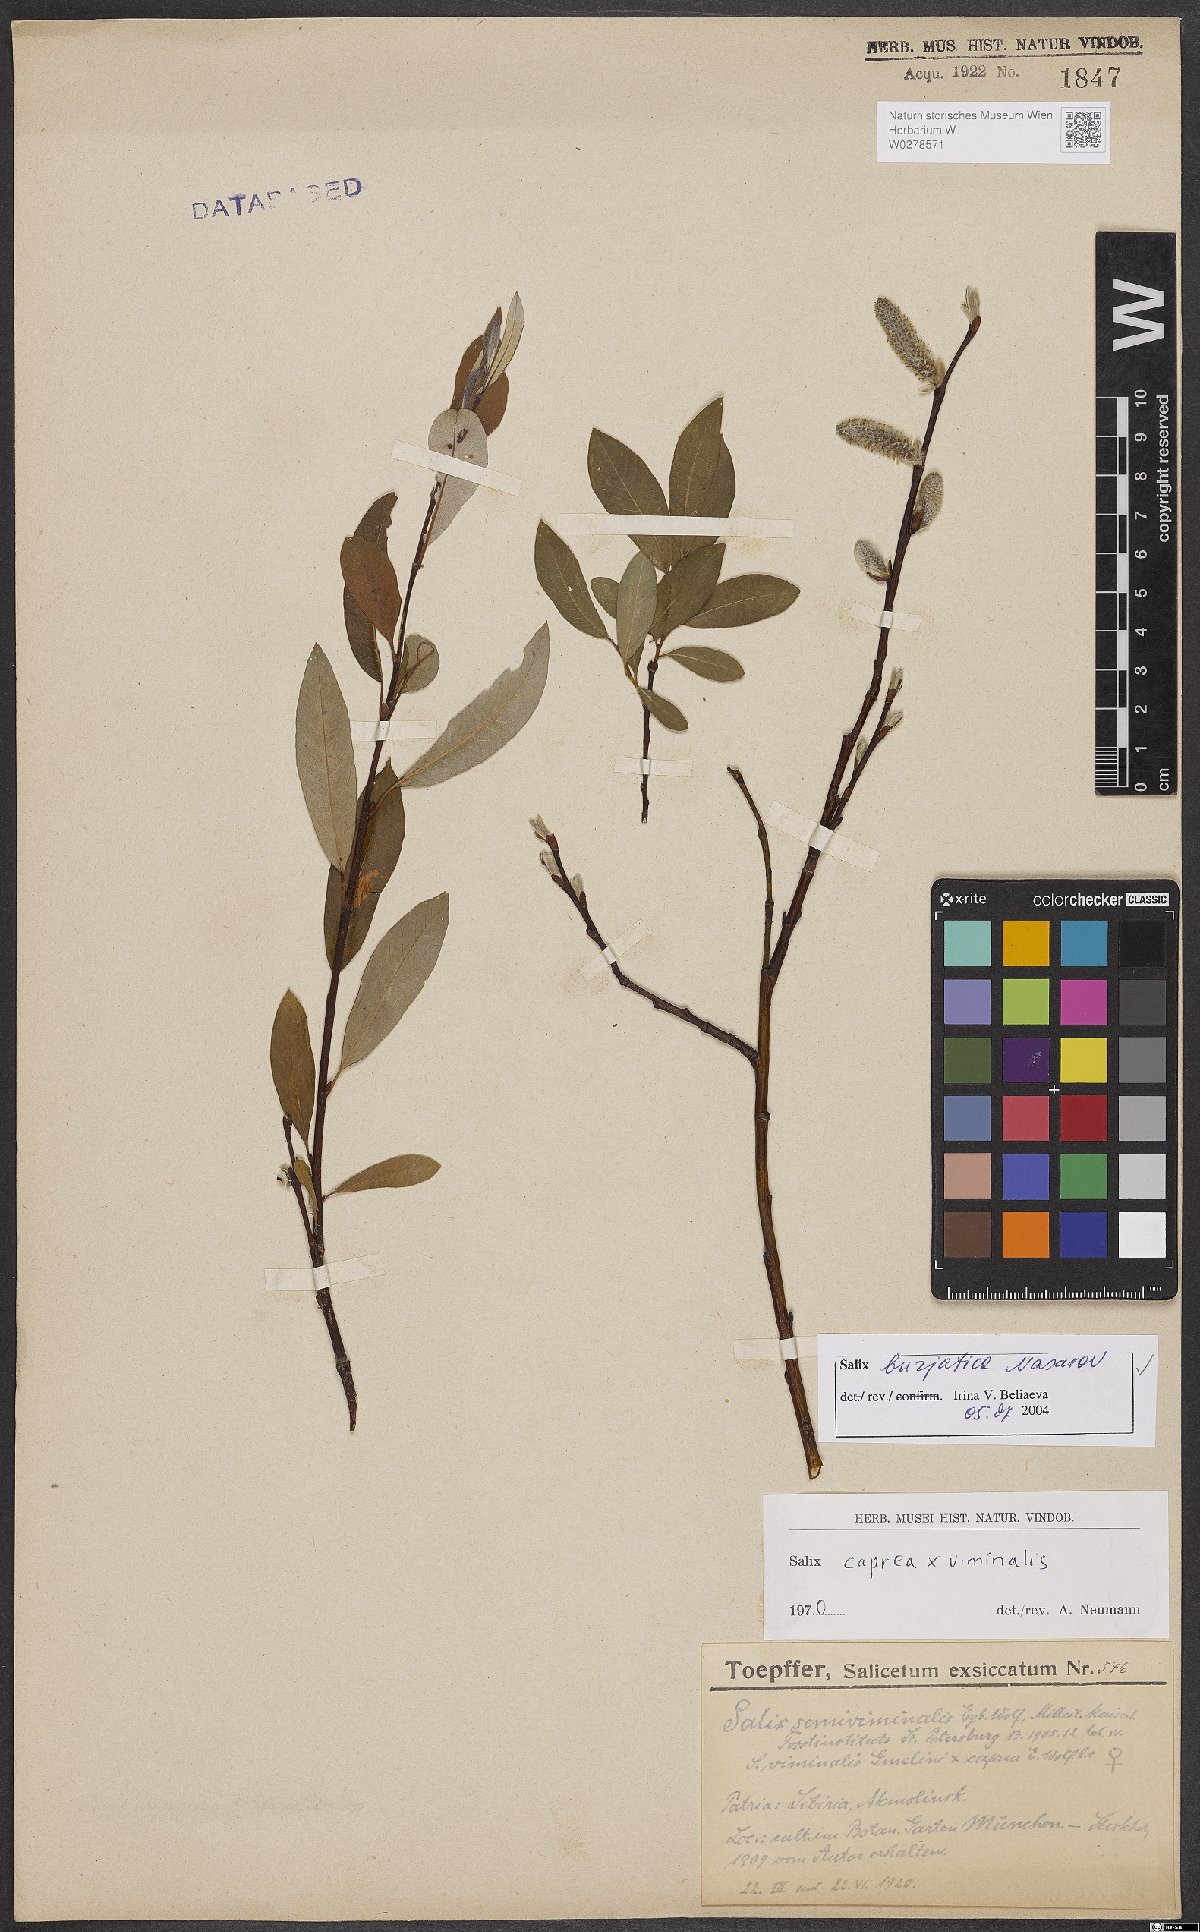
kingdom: Plantae
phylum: Tracheophyta
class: Magnoliopsida
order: Malpighiales
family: Salicaceae
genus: Salix
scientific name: Salix gmelinii
